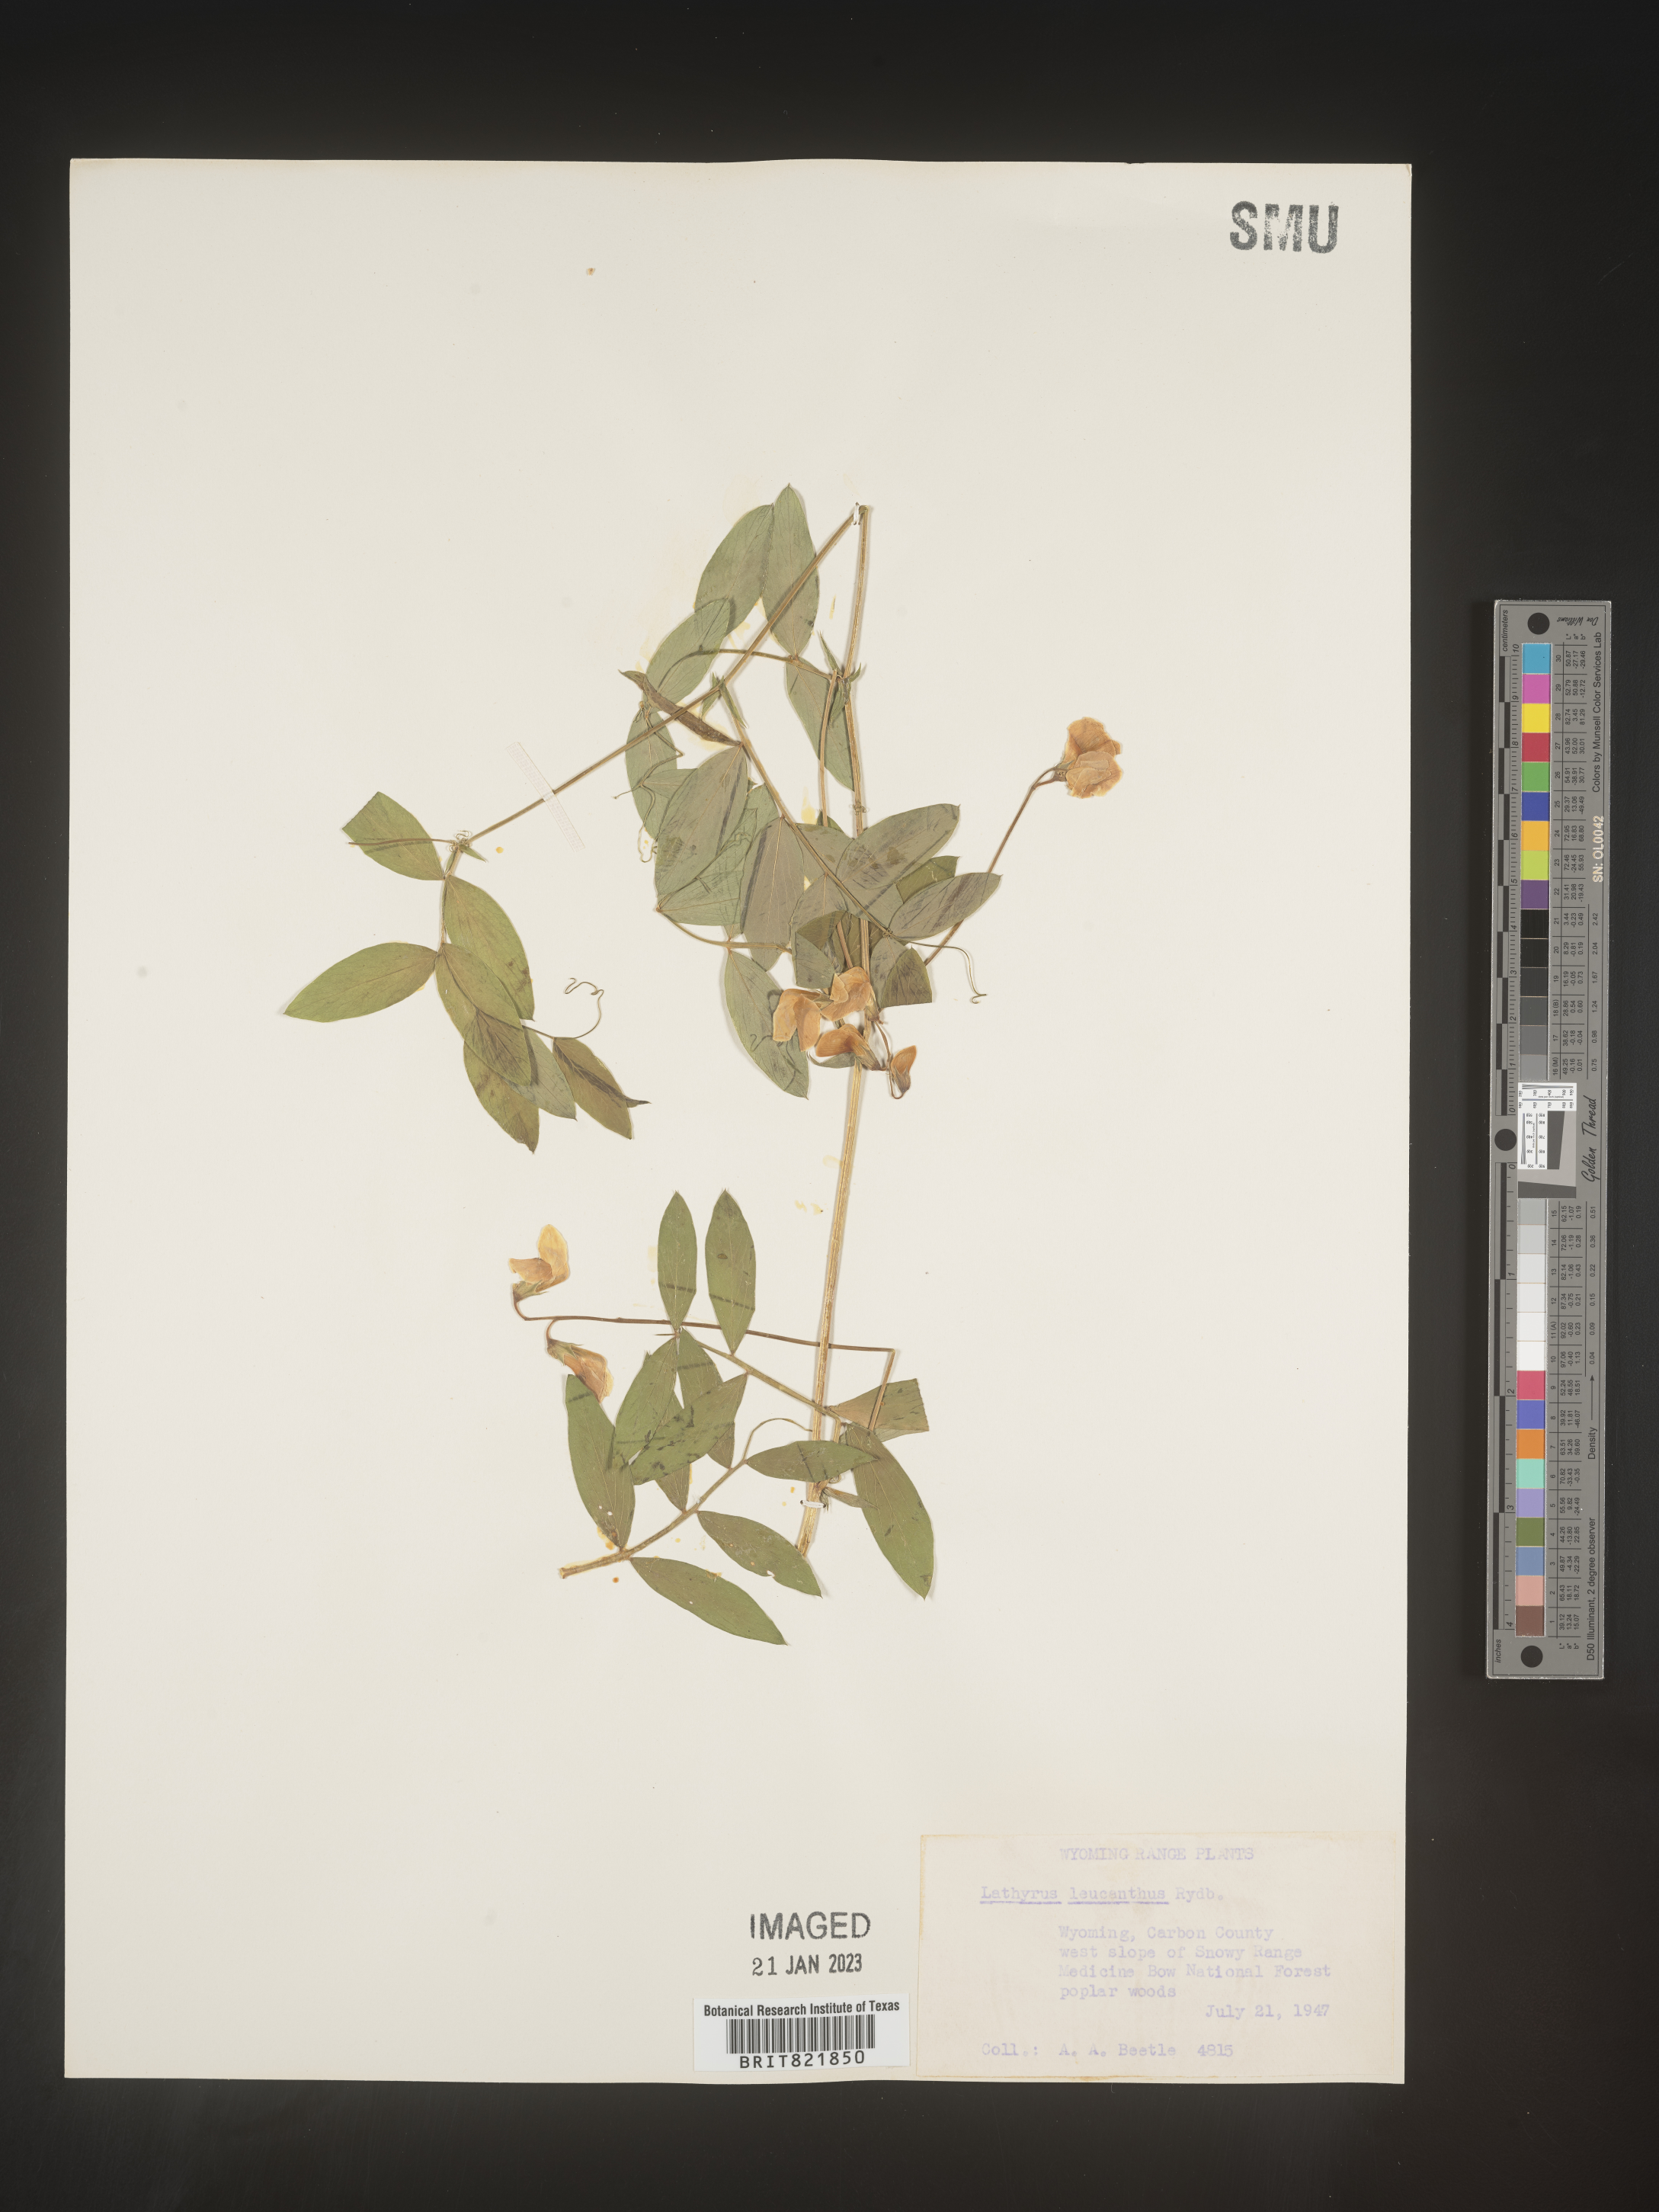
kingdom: Plantae
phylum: Tracheophyta
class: Magnoliopsida
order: Fabales
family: Fabaceae
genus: Lathyrus
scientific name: Lathyrus
